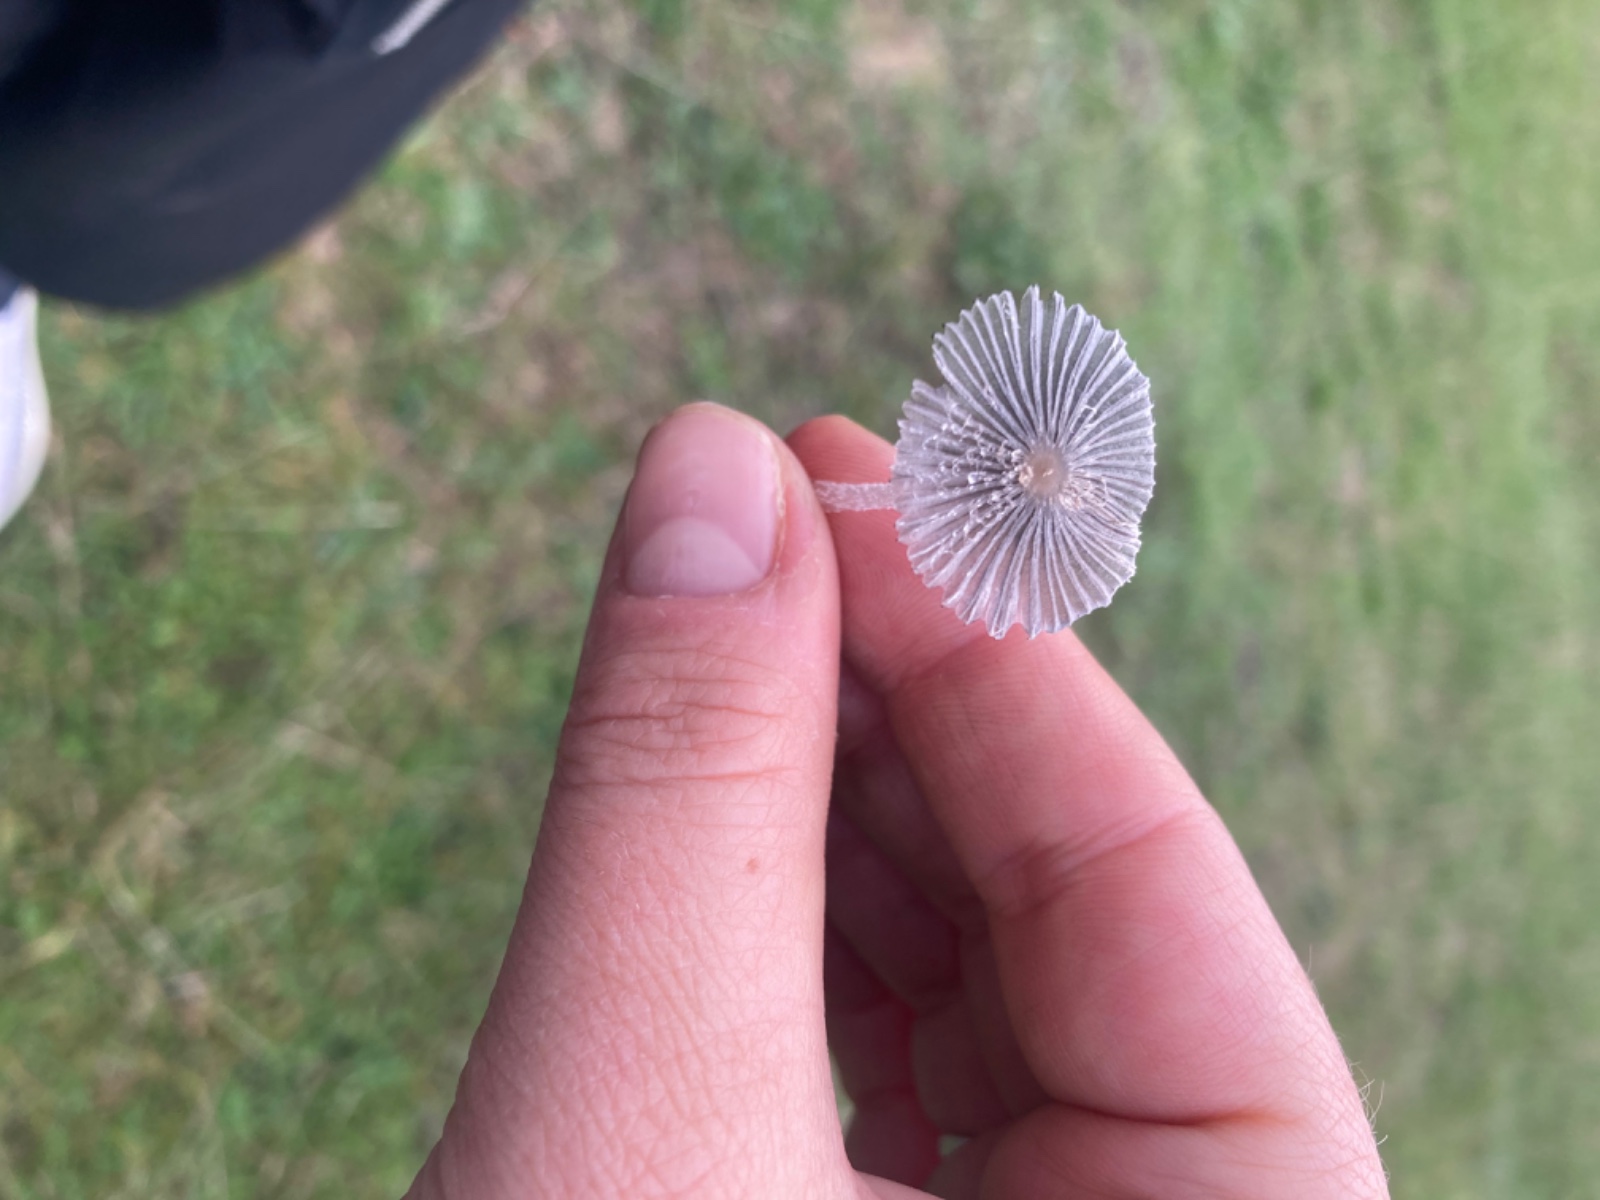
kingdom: Fungi
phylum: Basidiomycota
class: Agaricomycetes
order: Agaricales
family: Psathyrellaceae
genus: Coprinopsis
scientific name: Coprinopsis
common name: blækhat
